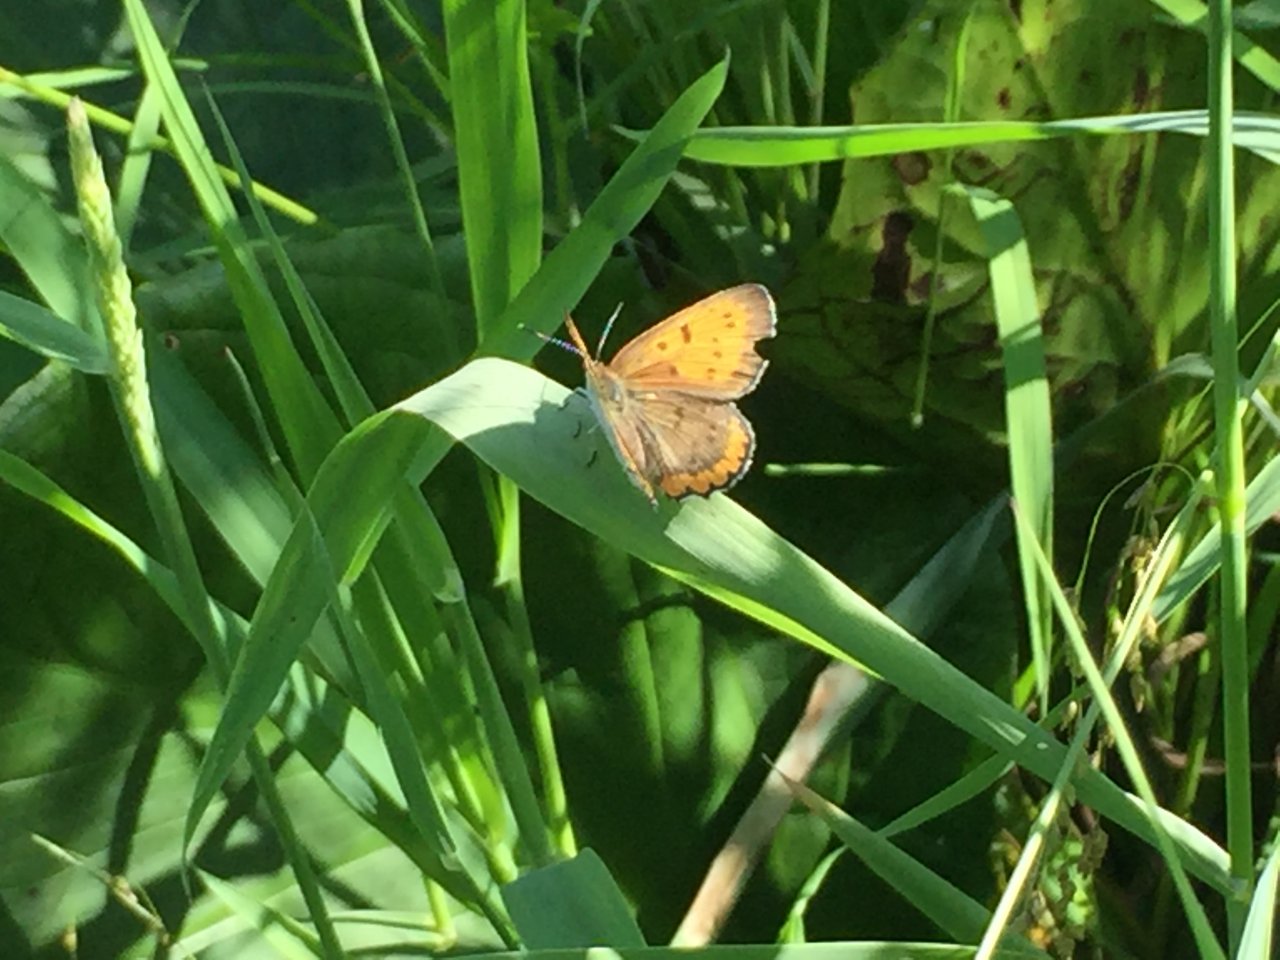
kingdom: Animalia
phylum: Arthropoda
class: Insecta
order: Lepidoptera
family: Sesiidae
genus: Sesia
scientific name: Sesia Lycaena hyllus
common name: Bronze Copper
